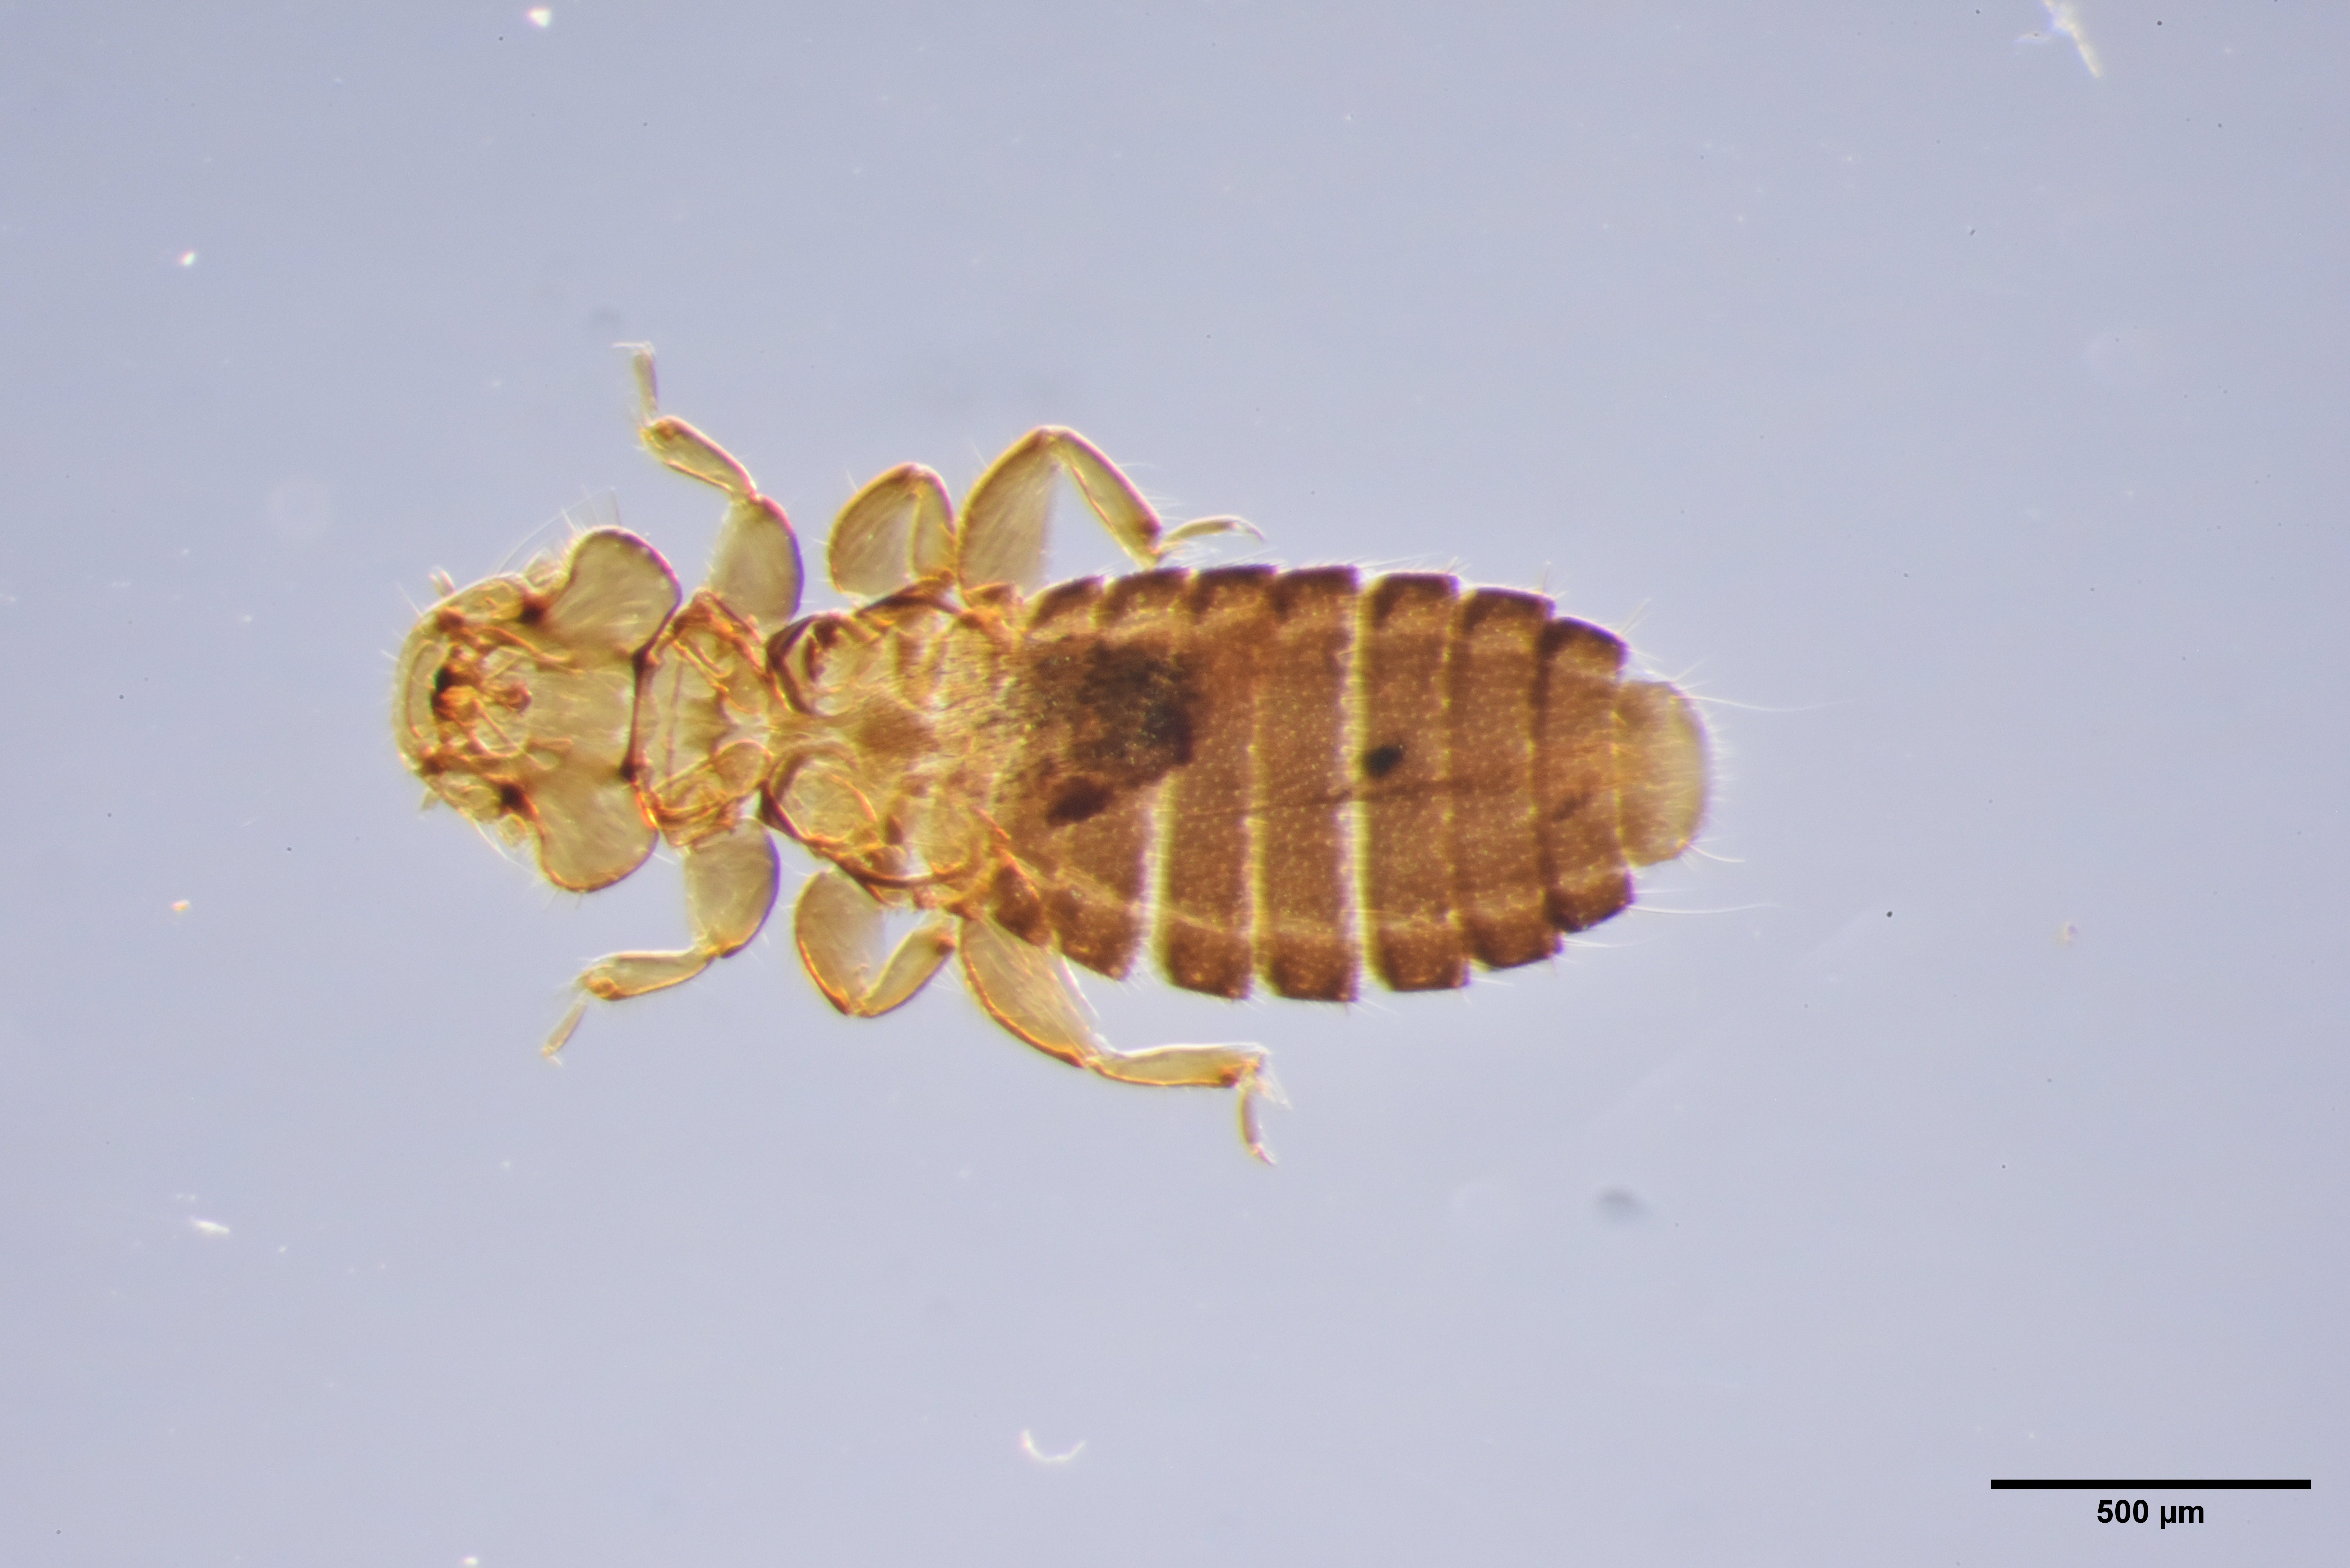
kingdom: Animalia
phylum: Arthropoda
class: Insecta
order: Psocodea
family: Ancistronidae
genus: Actornithophilus
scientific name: Actornithophilus limosae
